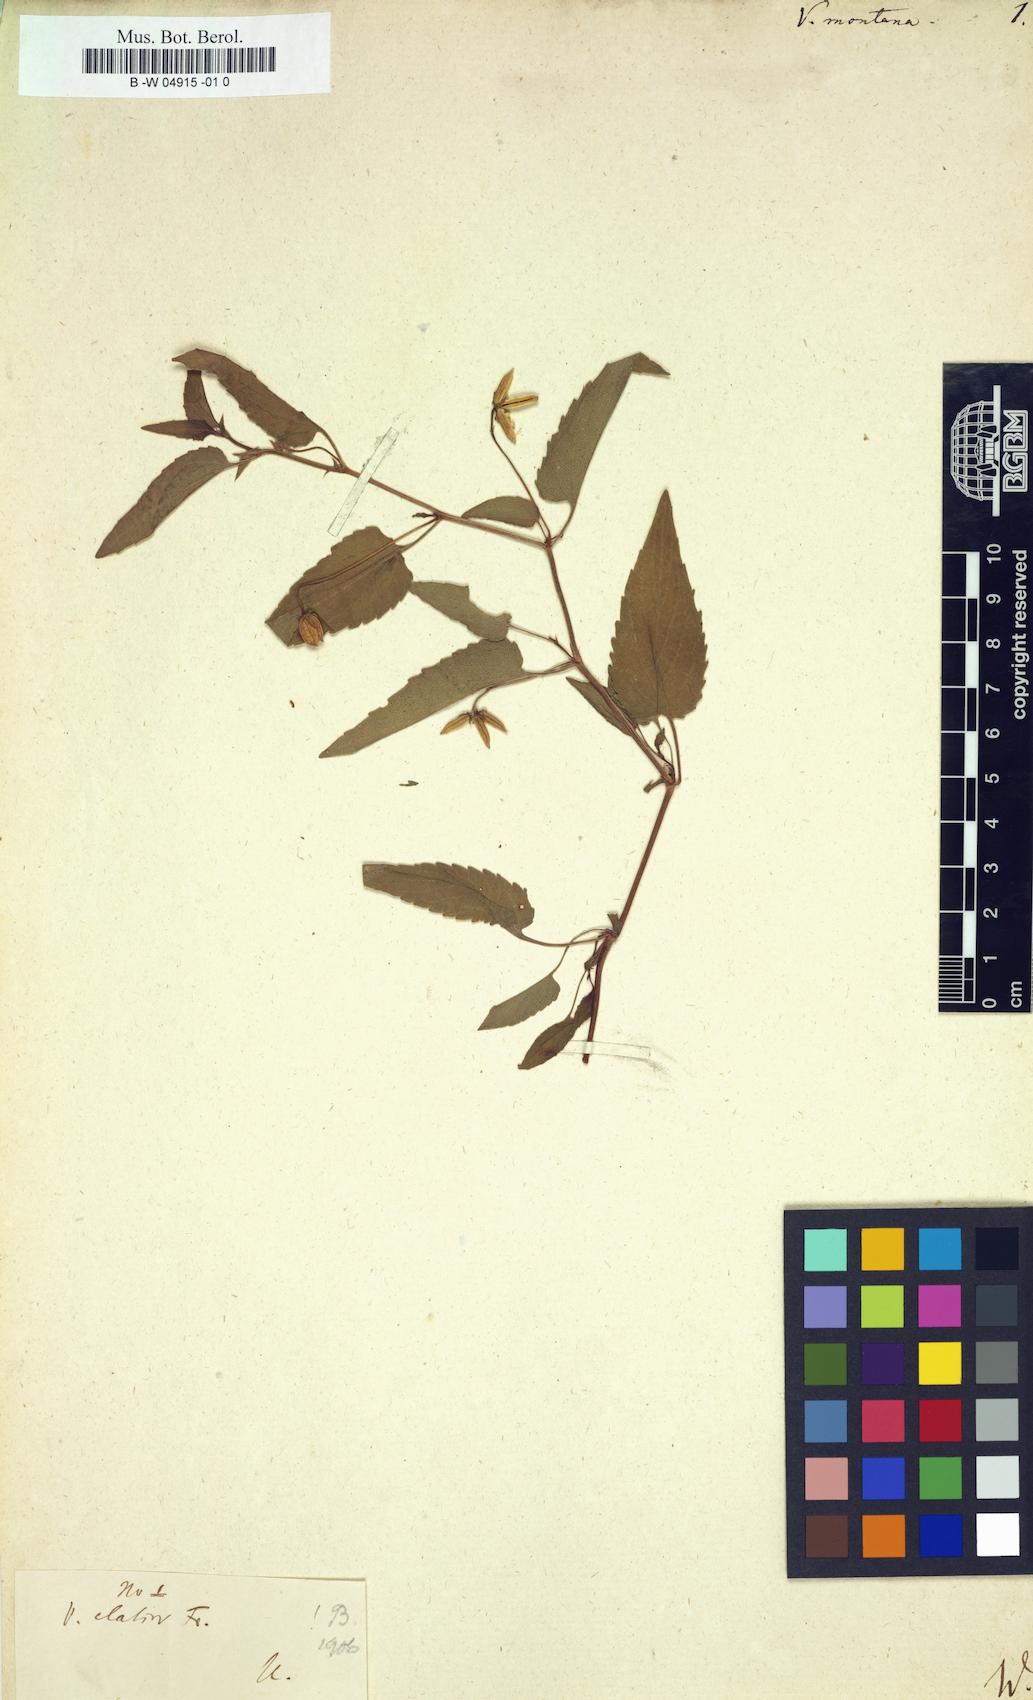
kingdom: Plantae
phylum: Tracheophyta
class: Magnoliopsida
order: Malpighiales
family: Violaceae
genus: Viola
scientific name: Viola
